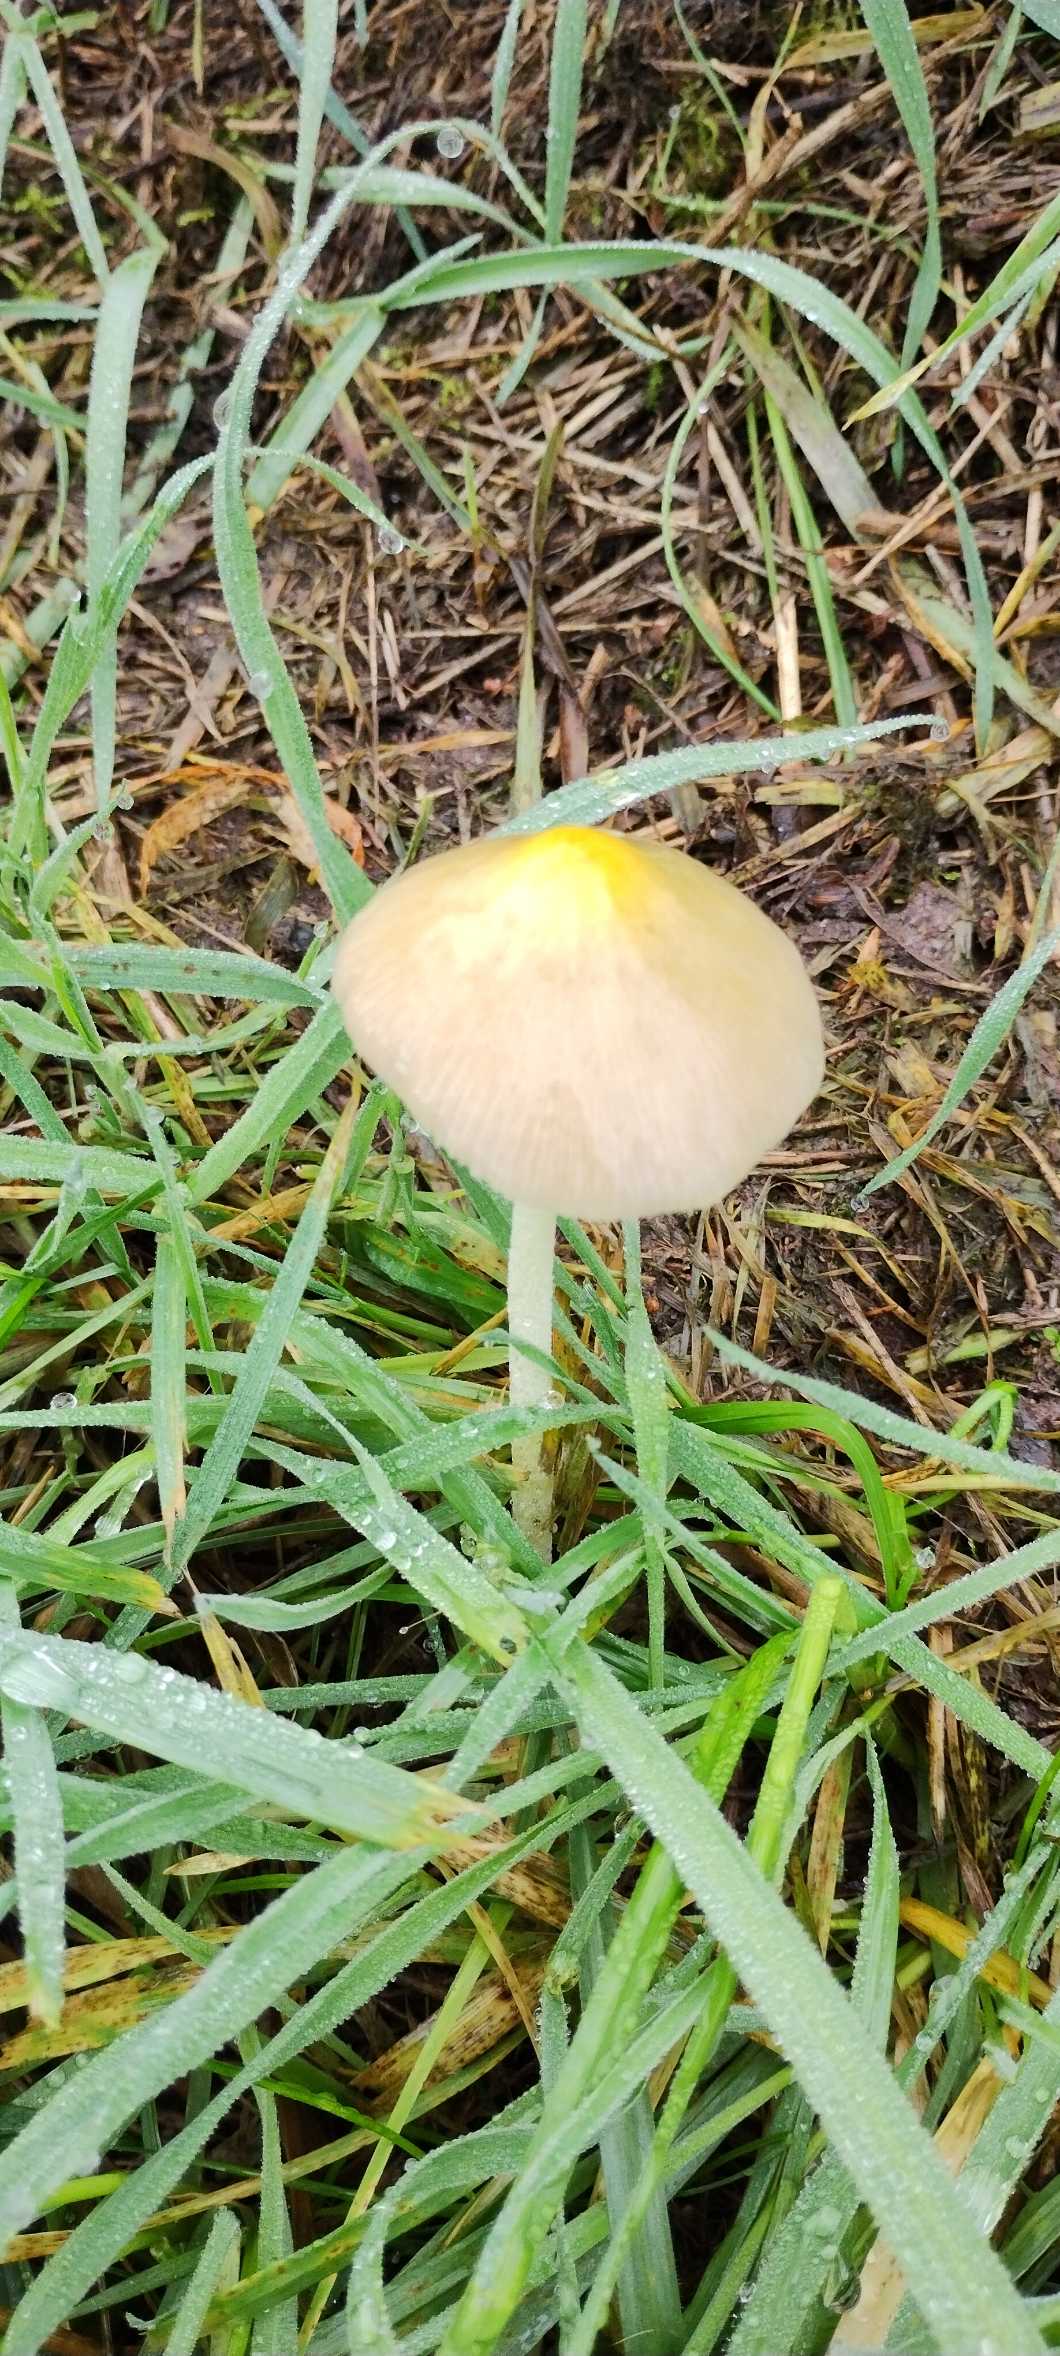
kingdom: Fungi
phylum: Basidiomycota
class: Agaricomycetes
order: Agaricales
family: Bolbitiaceae
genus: Bolbitius
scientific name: Bolbitius titubans
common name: Almindelig gulhat
